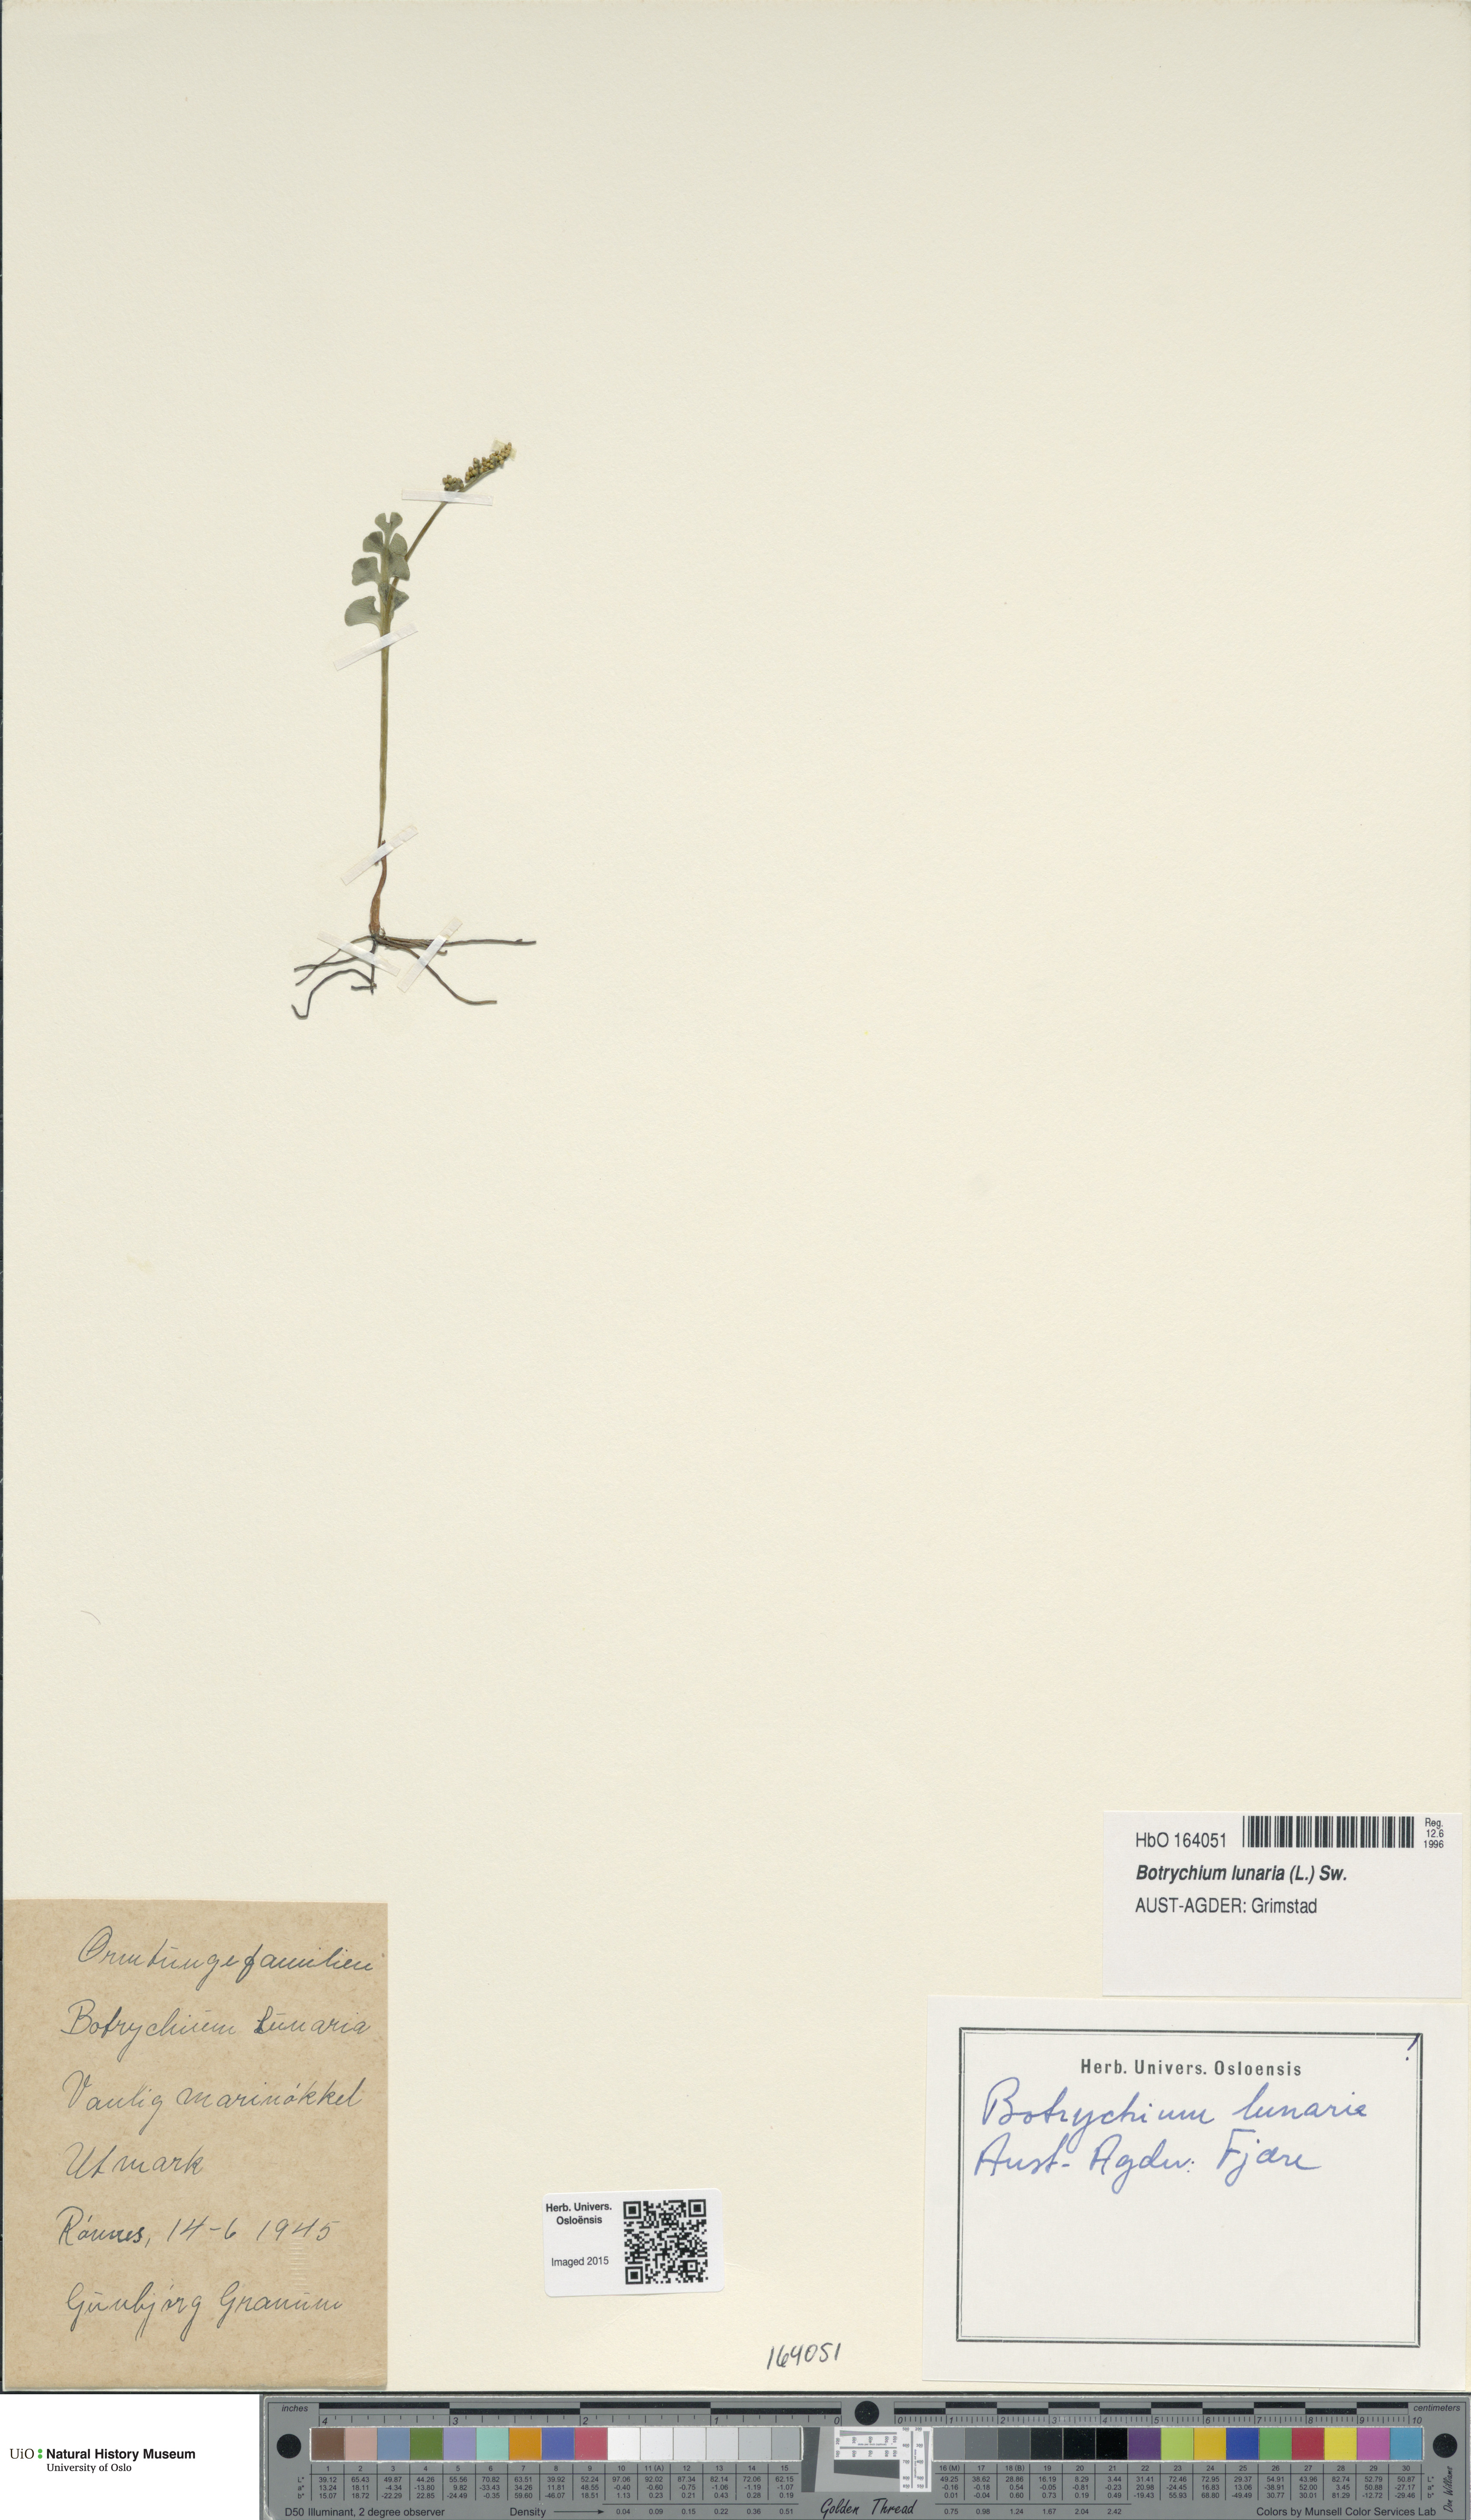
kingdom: Plantae
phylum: Tracheophyta
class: Polypodiopsida
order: Ophioglossales
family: Ophioglossaceae
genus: Botrychium
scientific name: Botrychium lunaria
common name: Moonwort
